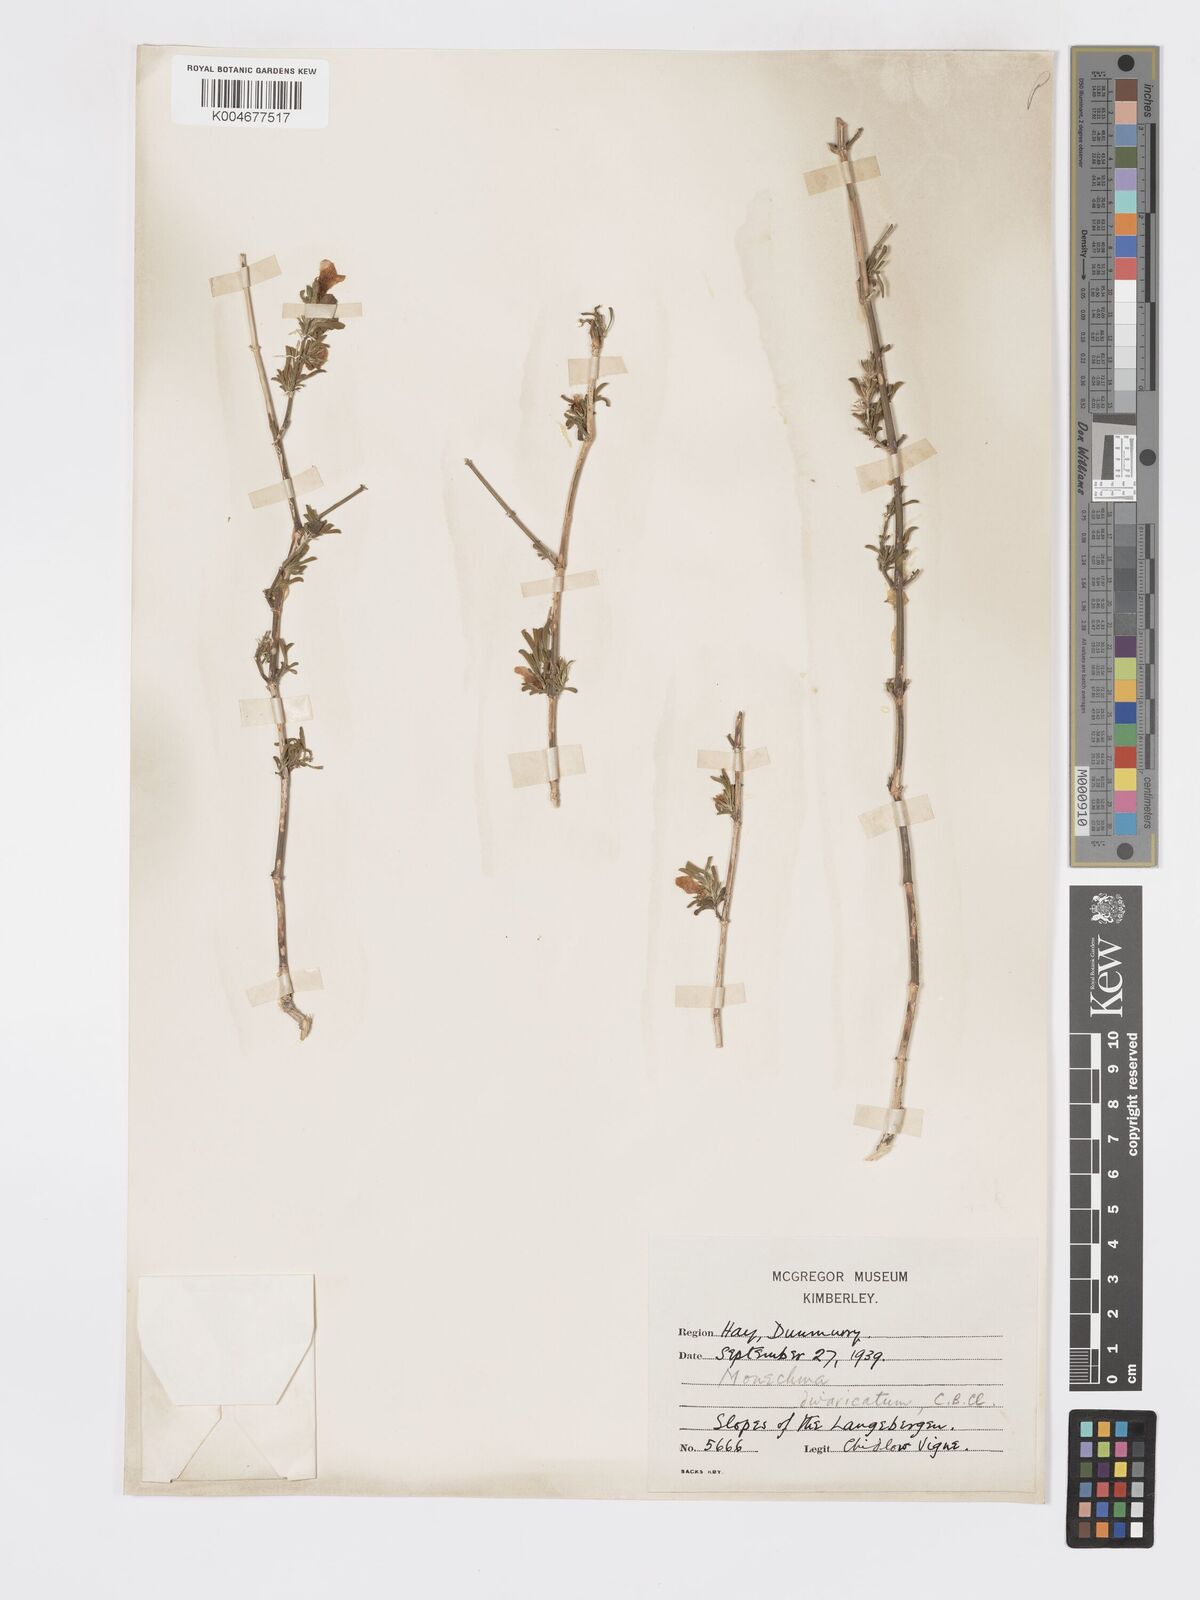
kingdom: Plantae
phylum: Tracheophyta
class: Magnoliopsida
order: Lamiales
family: Acanthaceae
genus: Pogonospermum
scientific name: Pogonospermum
